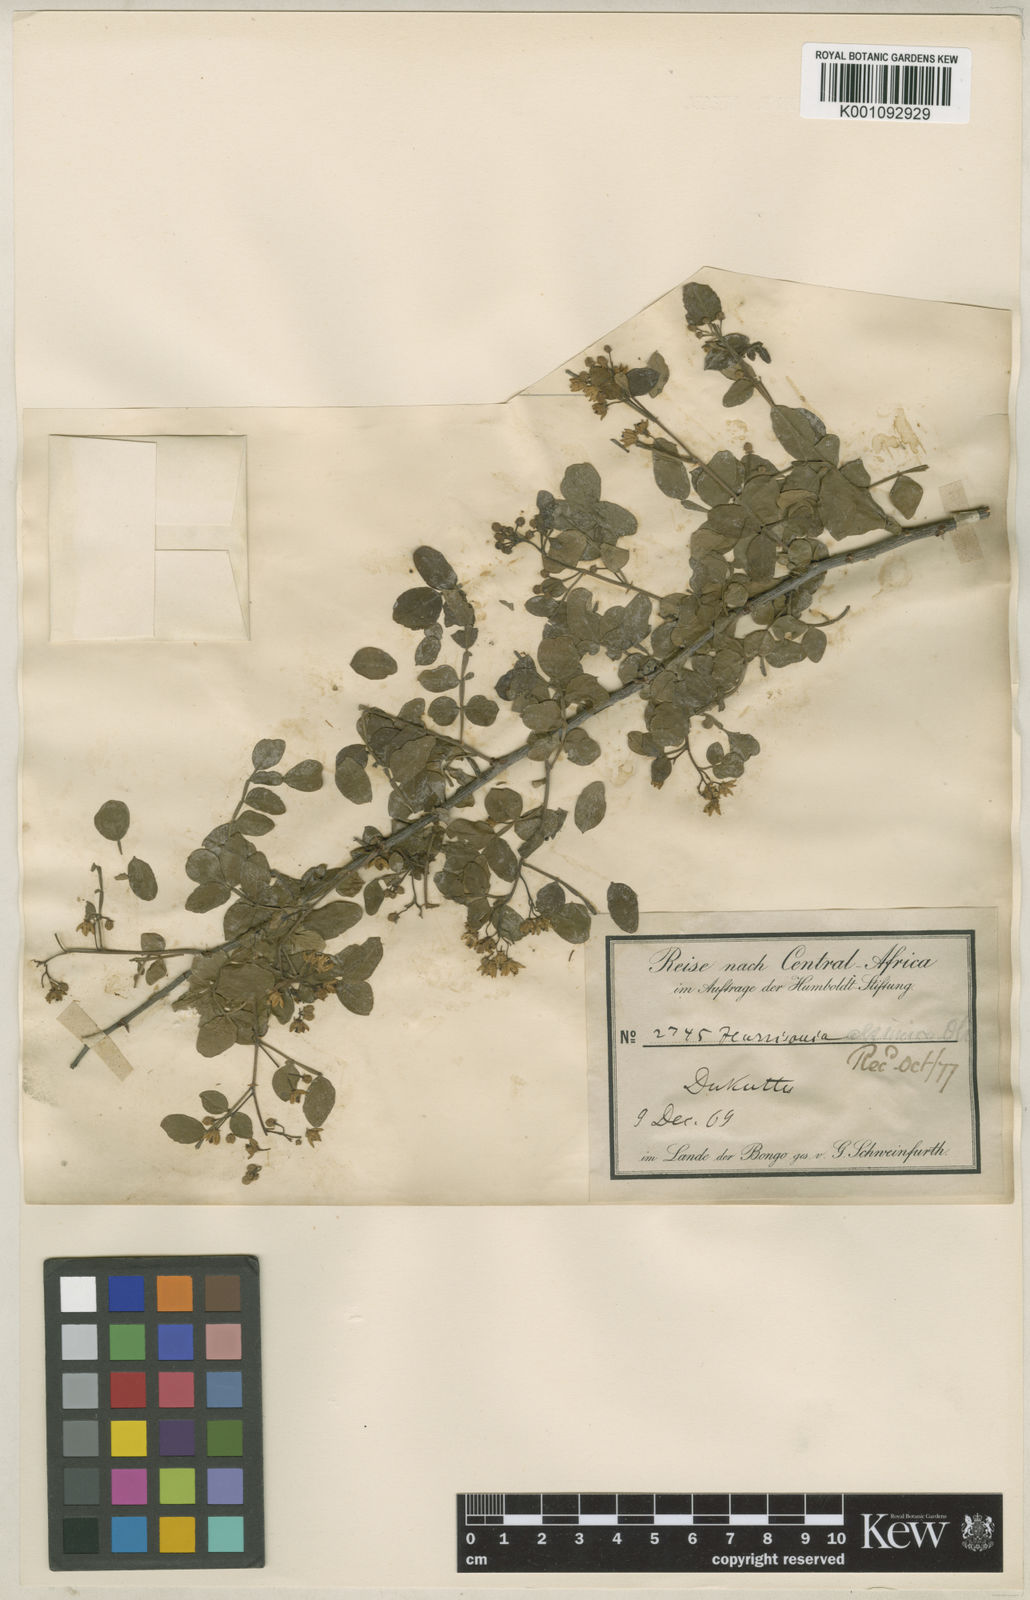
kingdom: Plantae
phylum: Tracheophyta
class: Magnoliopsida
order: Sapindales
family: Rutaceae
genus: Harrisonia
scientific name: Harrisonia abyssinica
